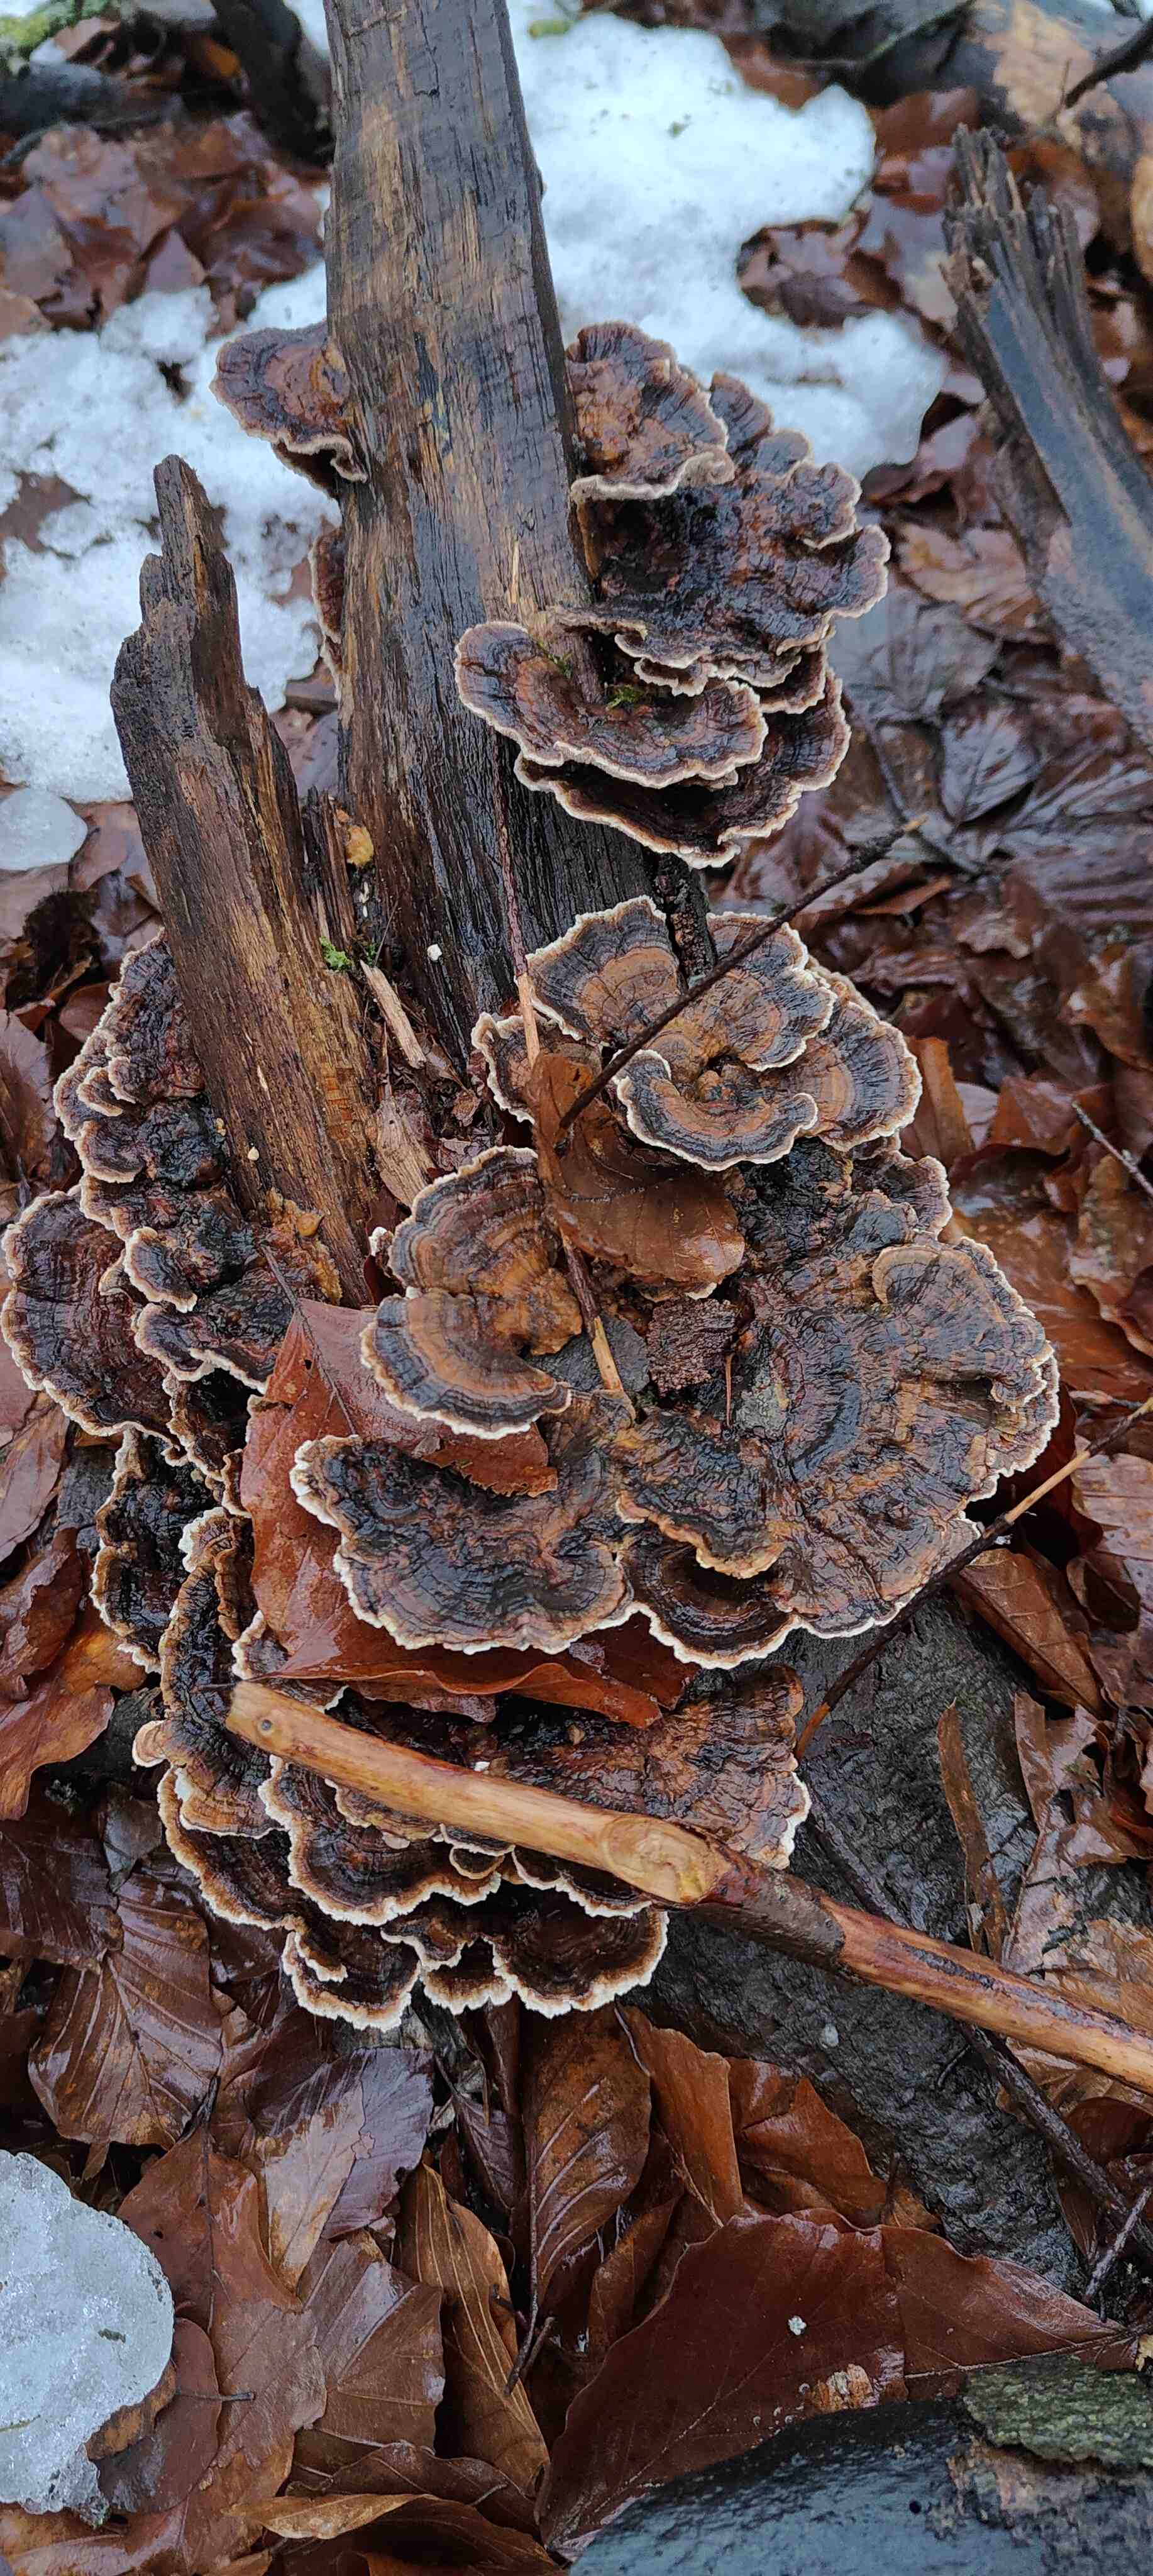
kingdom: Fungi
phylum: Basidiomycota
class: Agaricomycetes
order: Polyporales
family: Polyporaceae
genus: Trametes
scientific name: Trametes versicolor
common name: broget læderporesvamp
